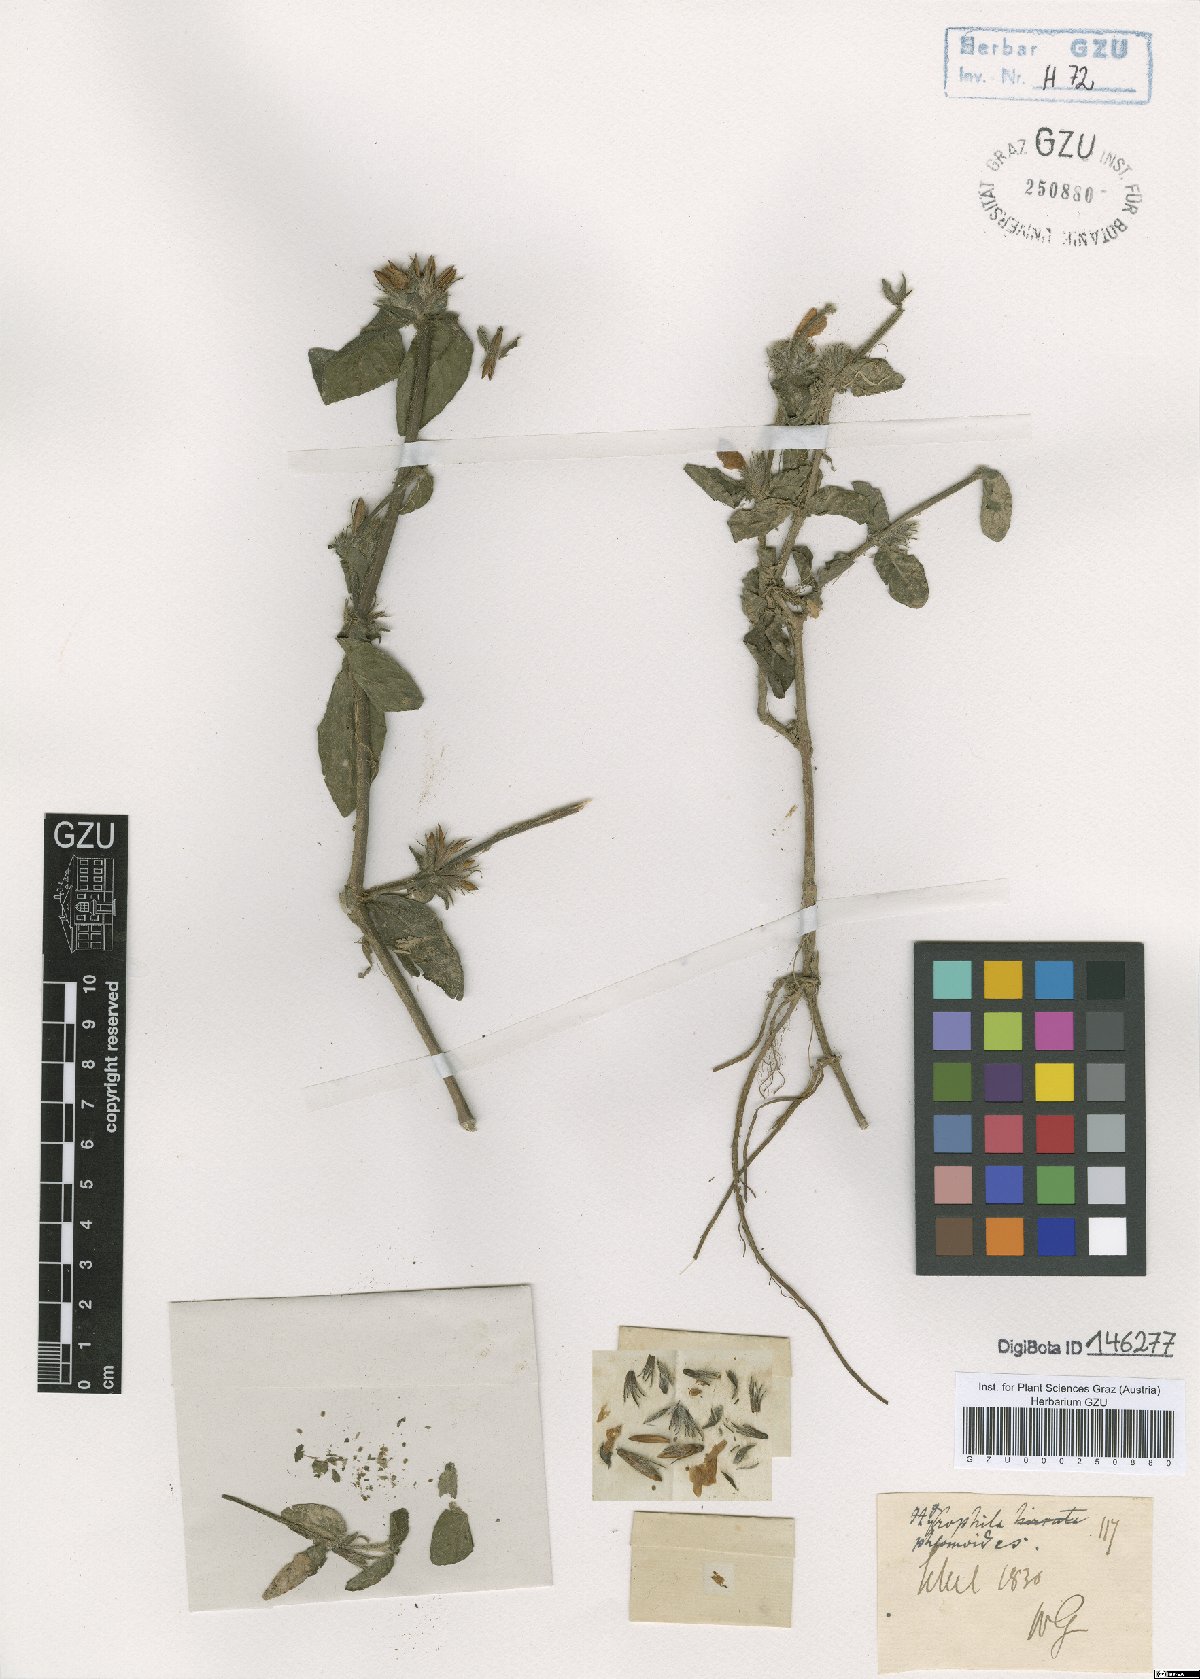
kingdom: Plantae
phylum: Tracheophyta
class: Magnoliopsida
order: Lamiales
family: Acanthaceae
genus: Hygrophila
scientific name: Hygrophila phlomoides
